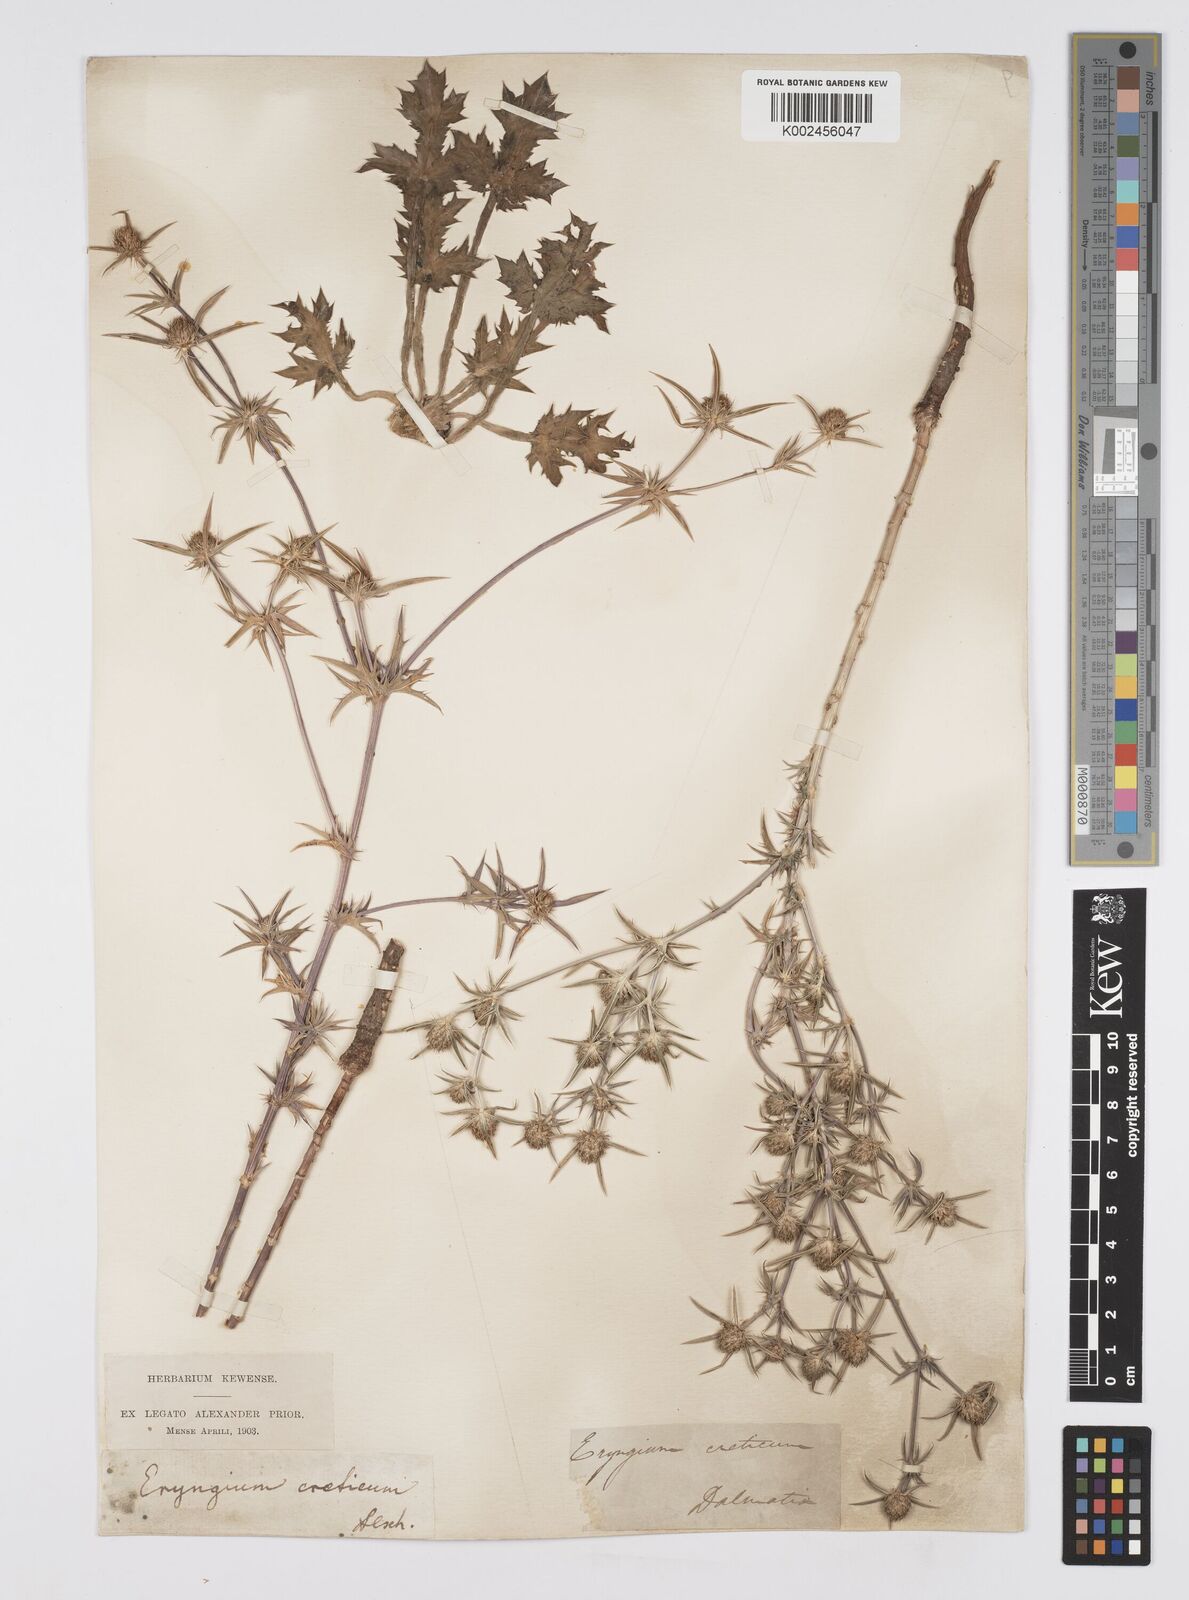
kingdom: Plantae
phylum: Tracheophyta
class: Magnoliopsida
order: Apiales
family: Apiaceae
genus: Eryngium
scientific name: Eryngium creticum
